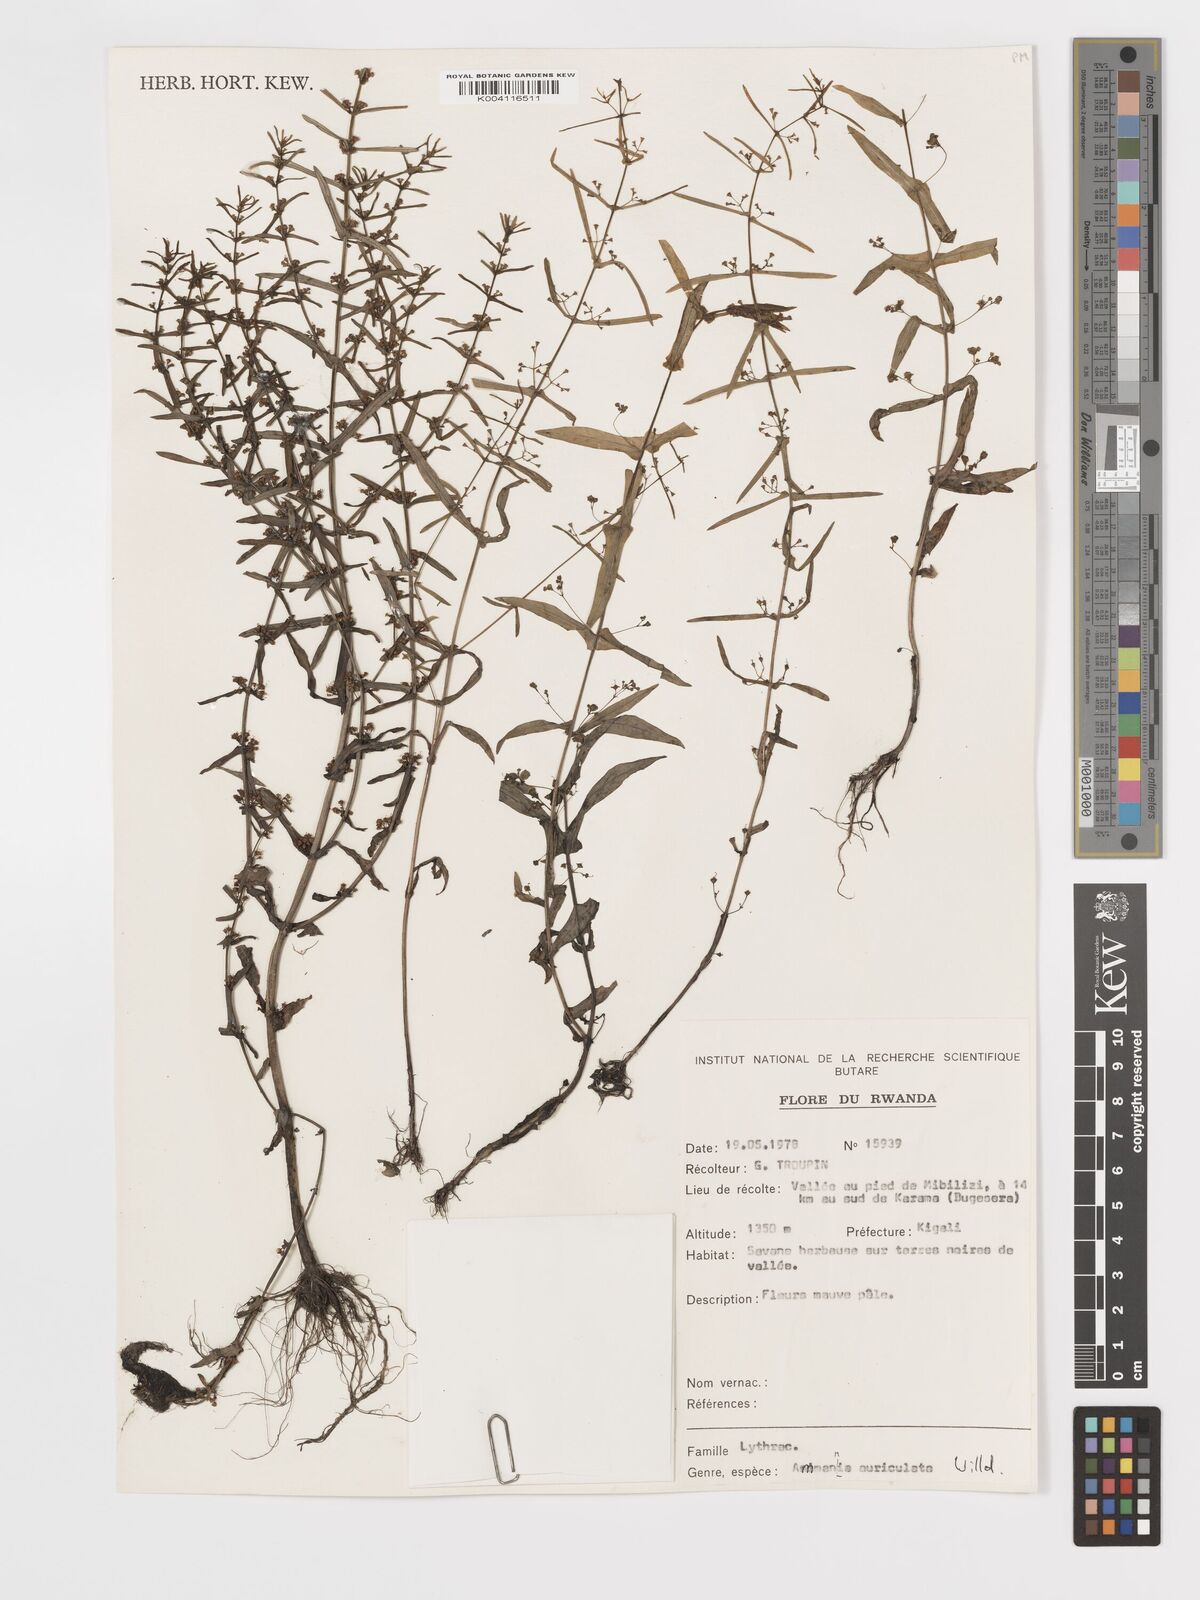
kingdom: Plantae
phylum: Tracheophyta
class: Magnoliopsida
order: Myrtales
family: Lythraceae
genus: Ammannia
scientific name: Ammannia auriculata
